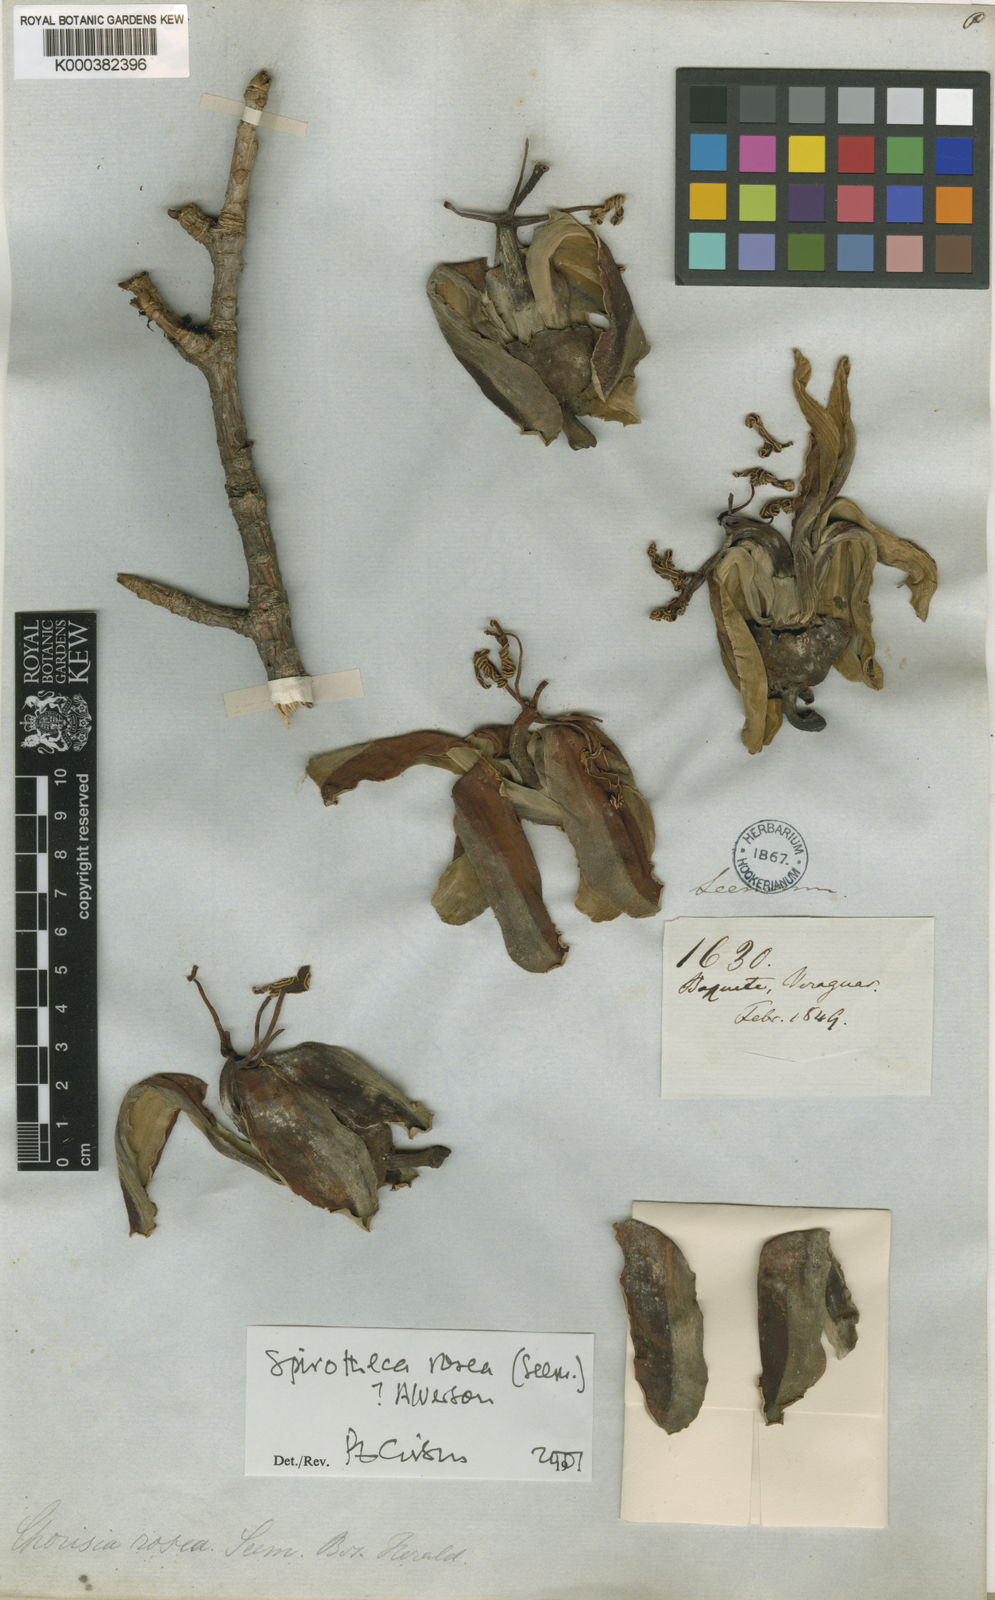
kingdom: Plantae
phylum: Tracheophyta
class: Magnoliopsida
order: Malvales
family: Malvaceae
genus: Spirotheca
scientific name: Spirotheca rosea
